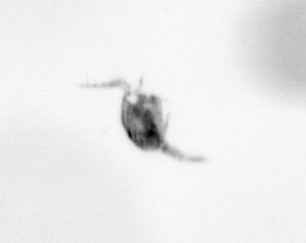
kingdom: Animalia
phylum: Arthropoda
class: Copepoda
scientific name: Copepoda
